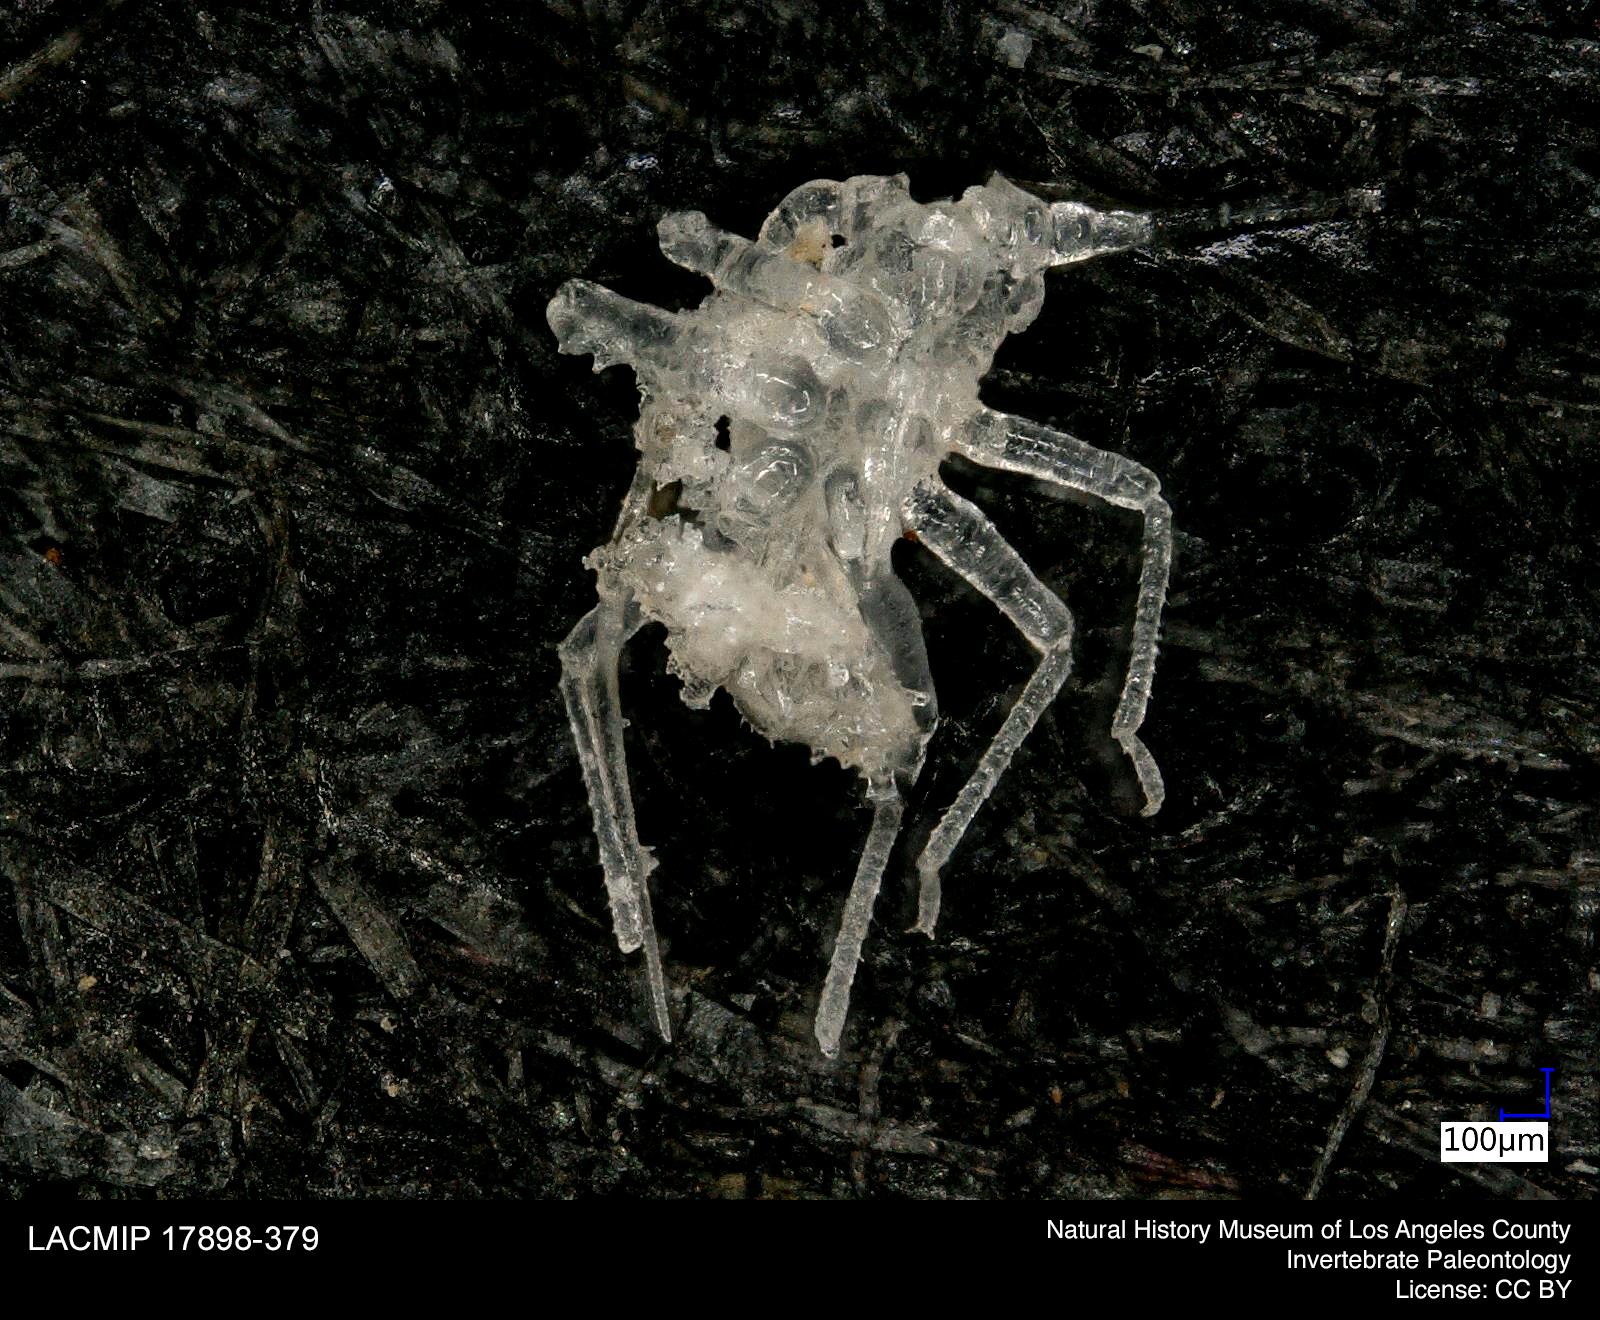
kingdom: Animalia
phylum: Arthropoda
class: Insecta
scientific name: Insecta
